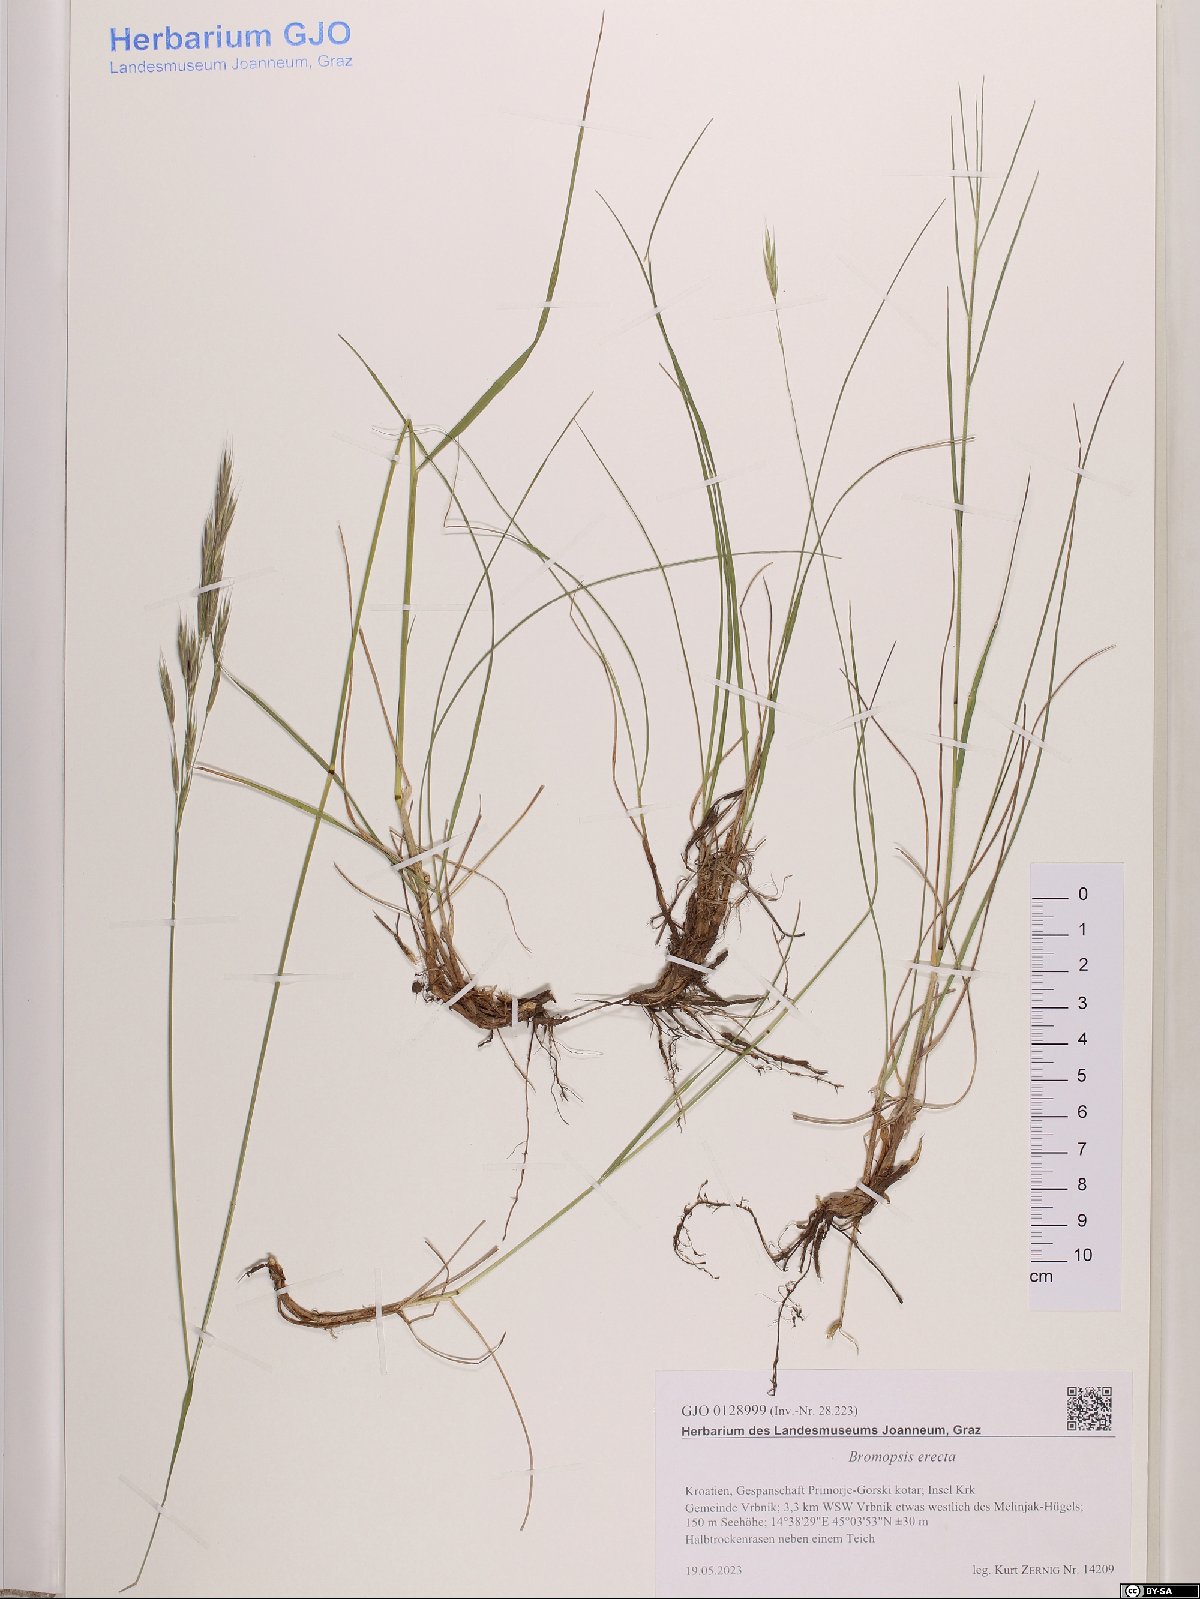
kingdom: Plantae
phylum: Tracheophyta
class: Liliopsida
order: Poales
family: Poaceae
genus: Bromus
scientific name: Bromus erectus
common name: Erect brome
